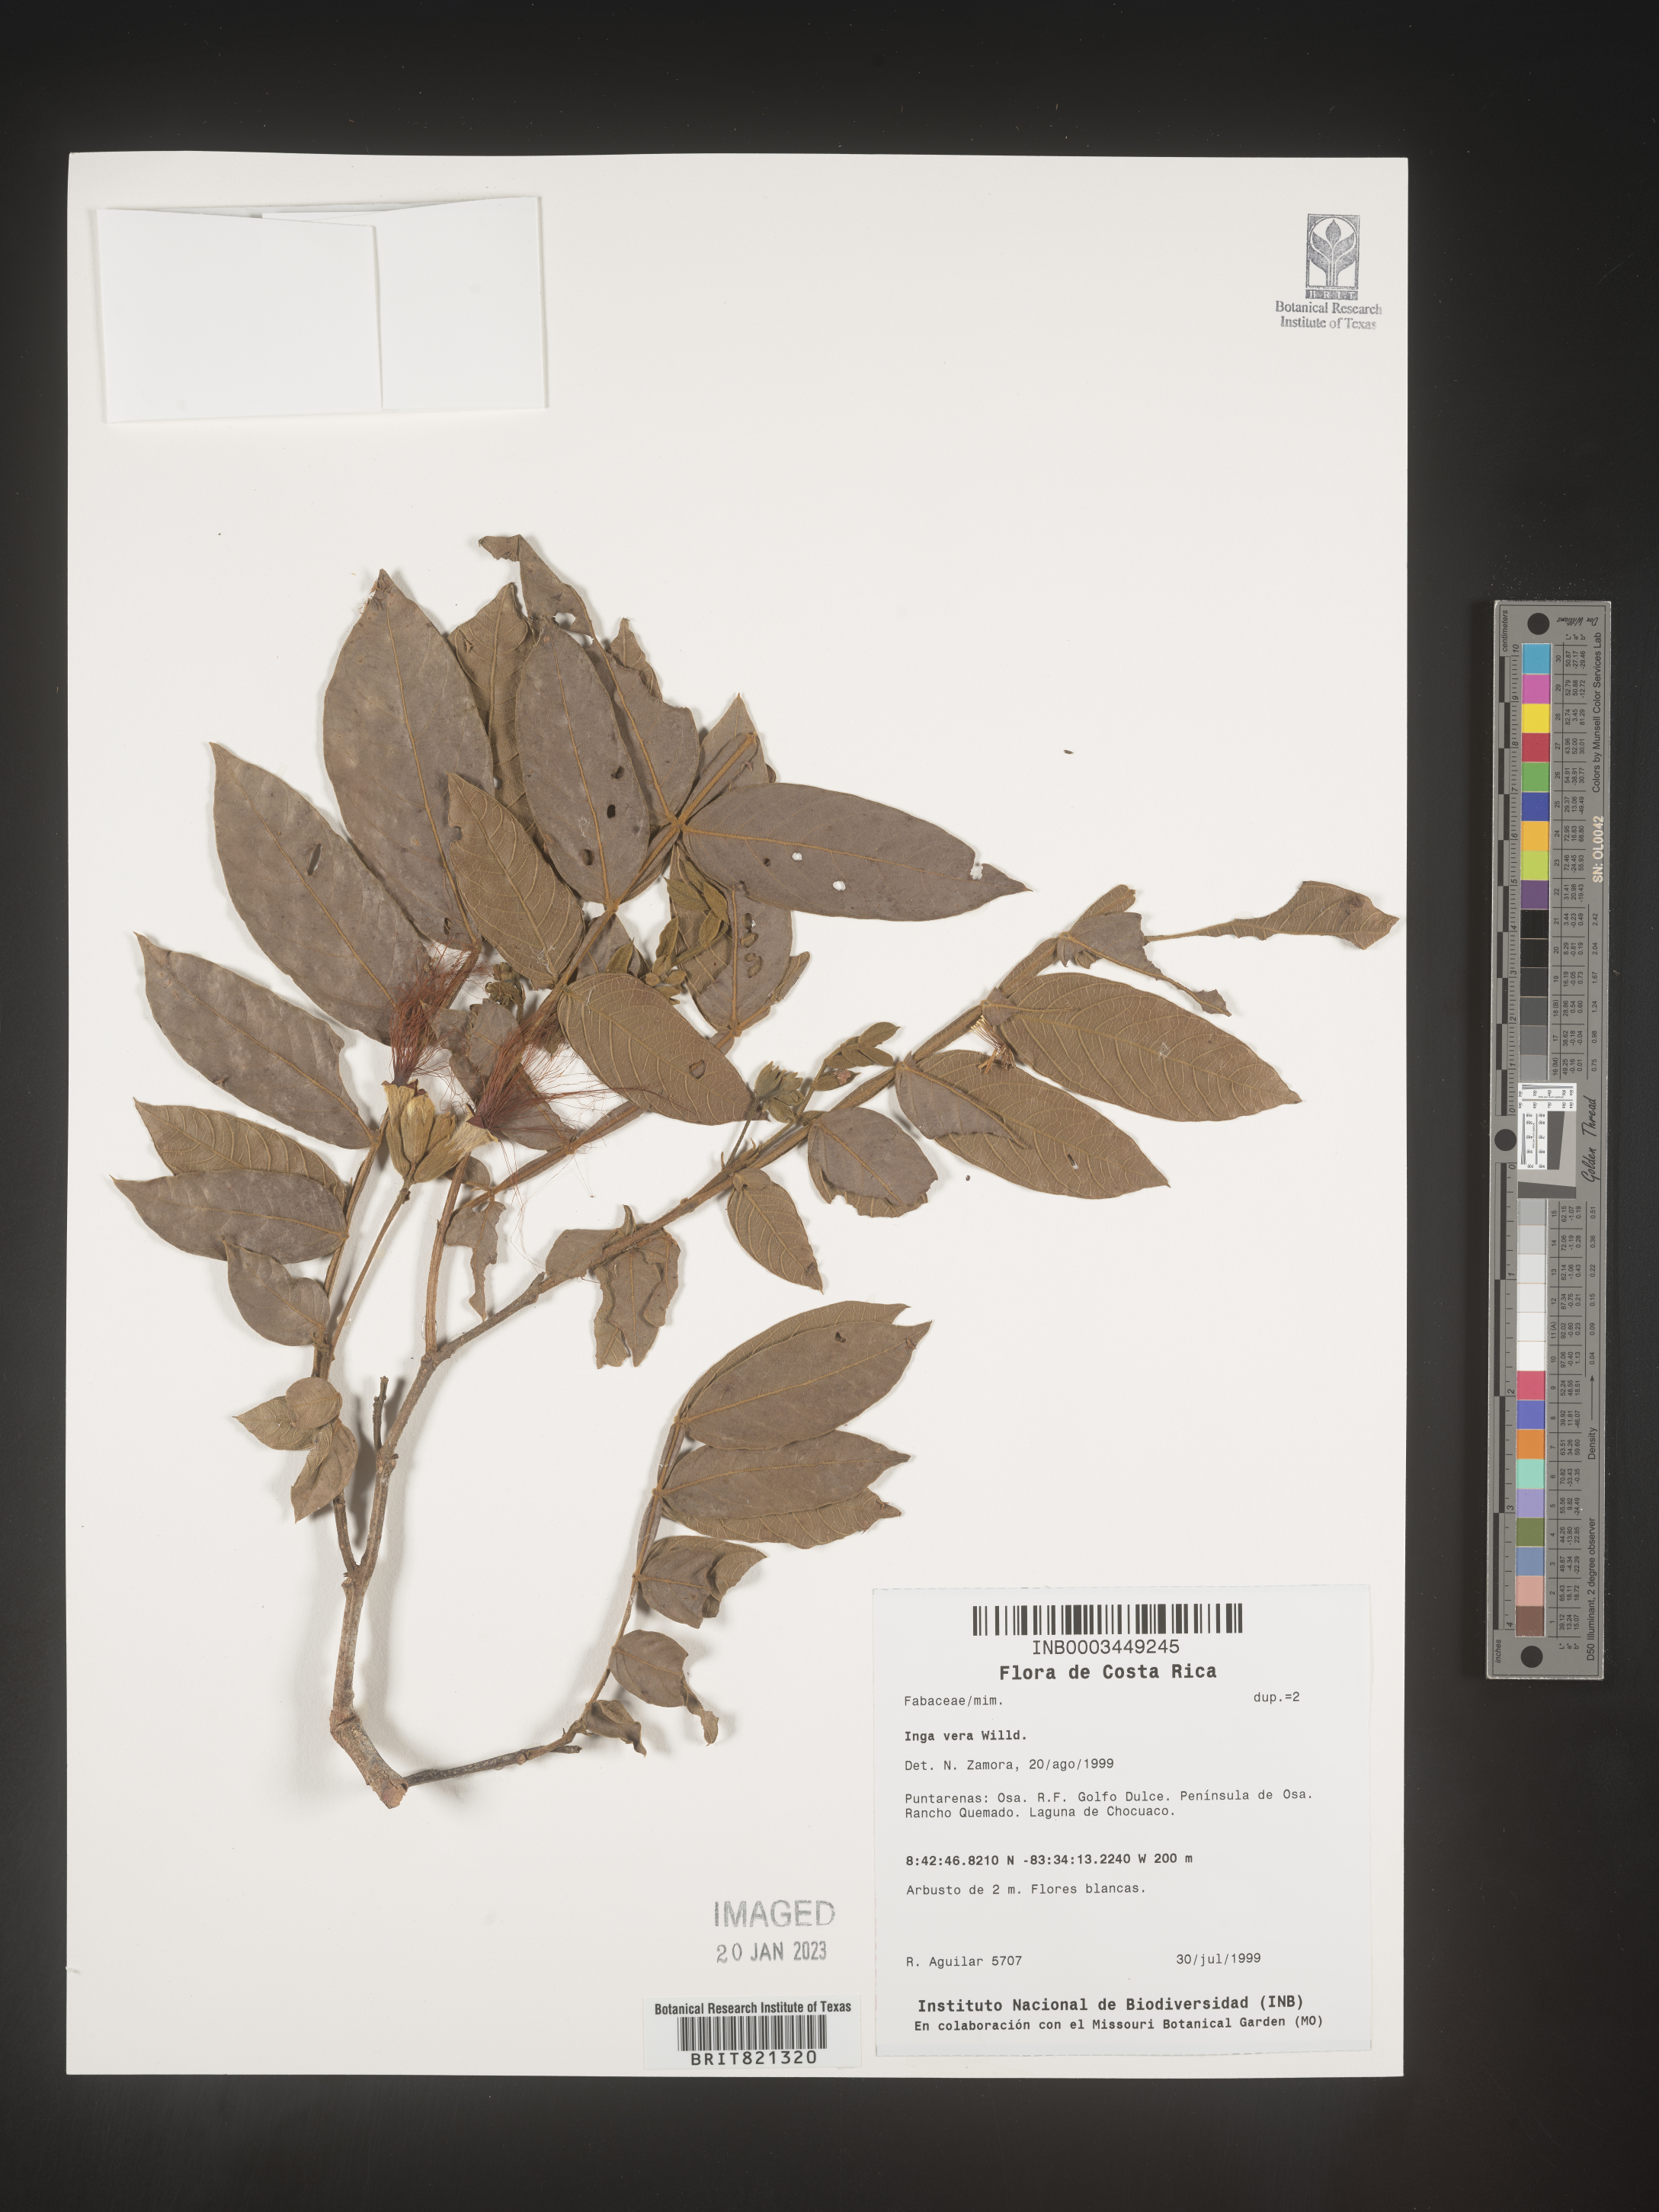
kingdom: Plantae
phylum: Tracheophyta
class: Magnoliopsida
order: Fabales
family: Fabaceae
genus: Inga
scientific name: Inga
